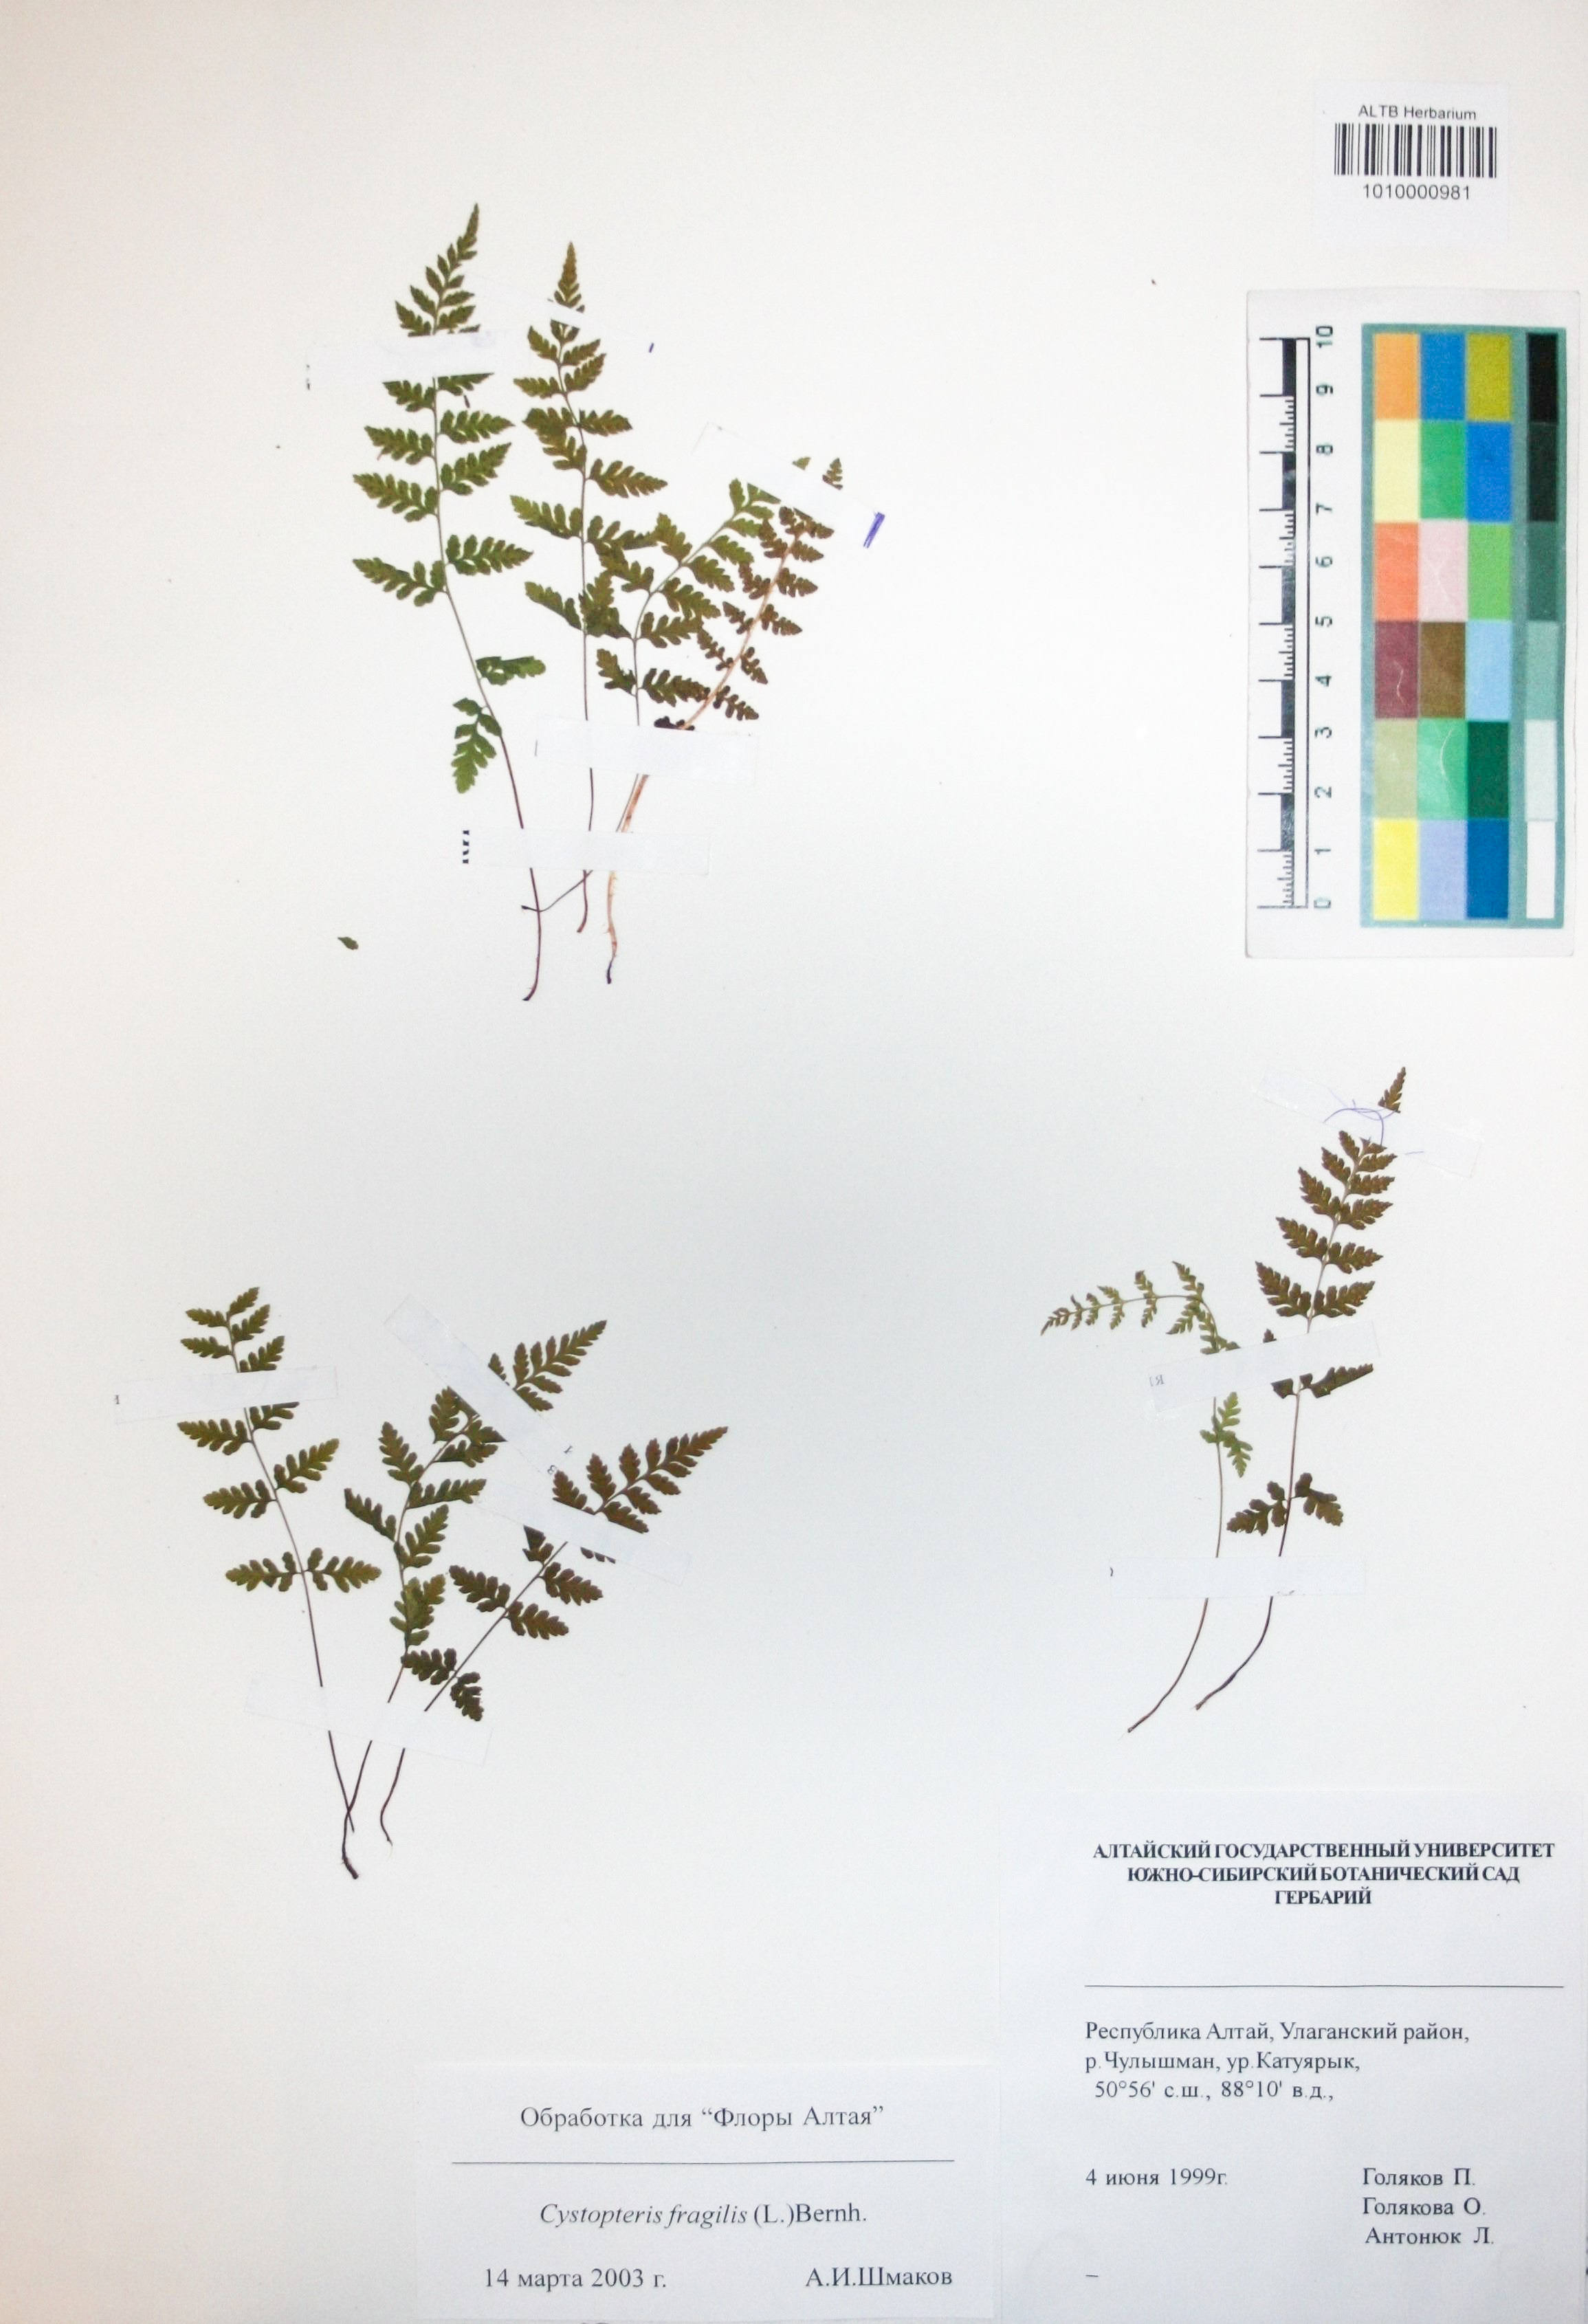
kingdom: Plantae
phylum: Tracheophyta
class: Polypodiopsida
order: Polypodiales
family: Cystopteridaceae
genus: Cystopteris
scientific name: Cystopteris fragilis
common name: Brittle bladder fern
